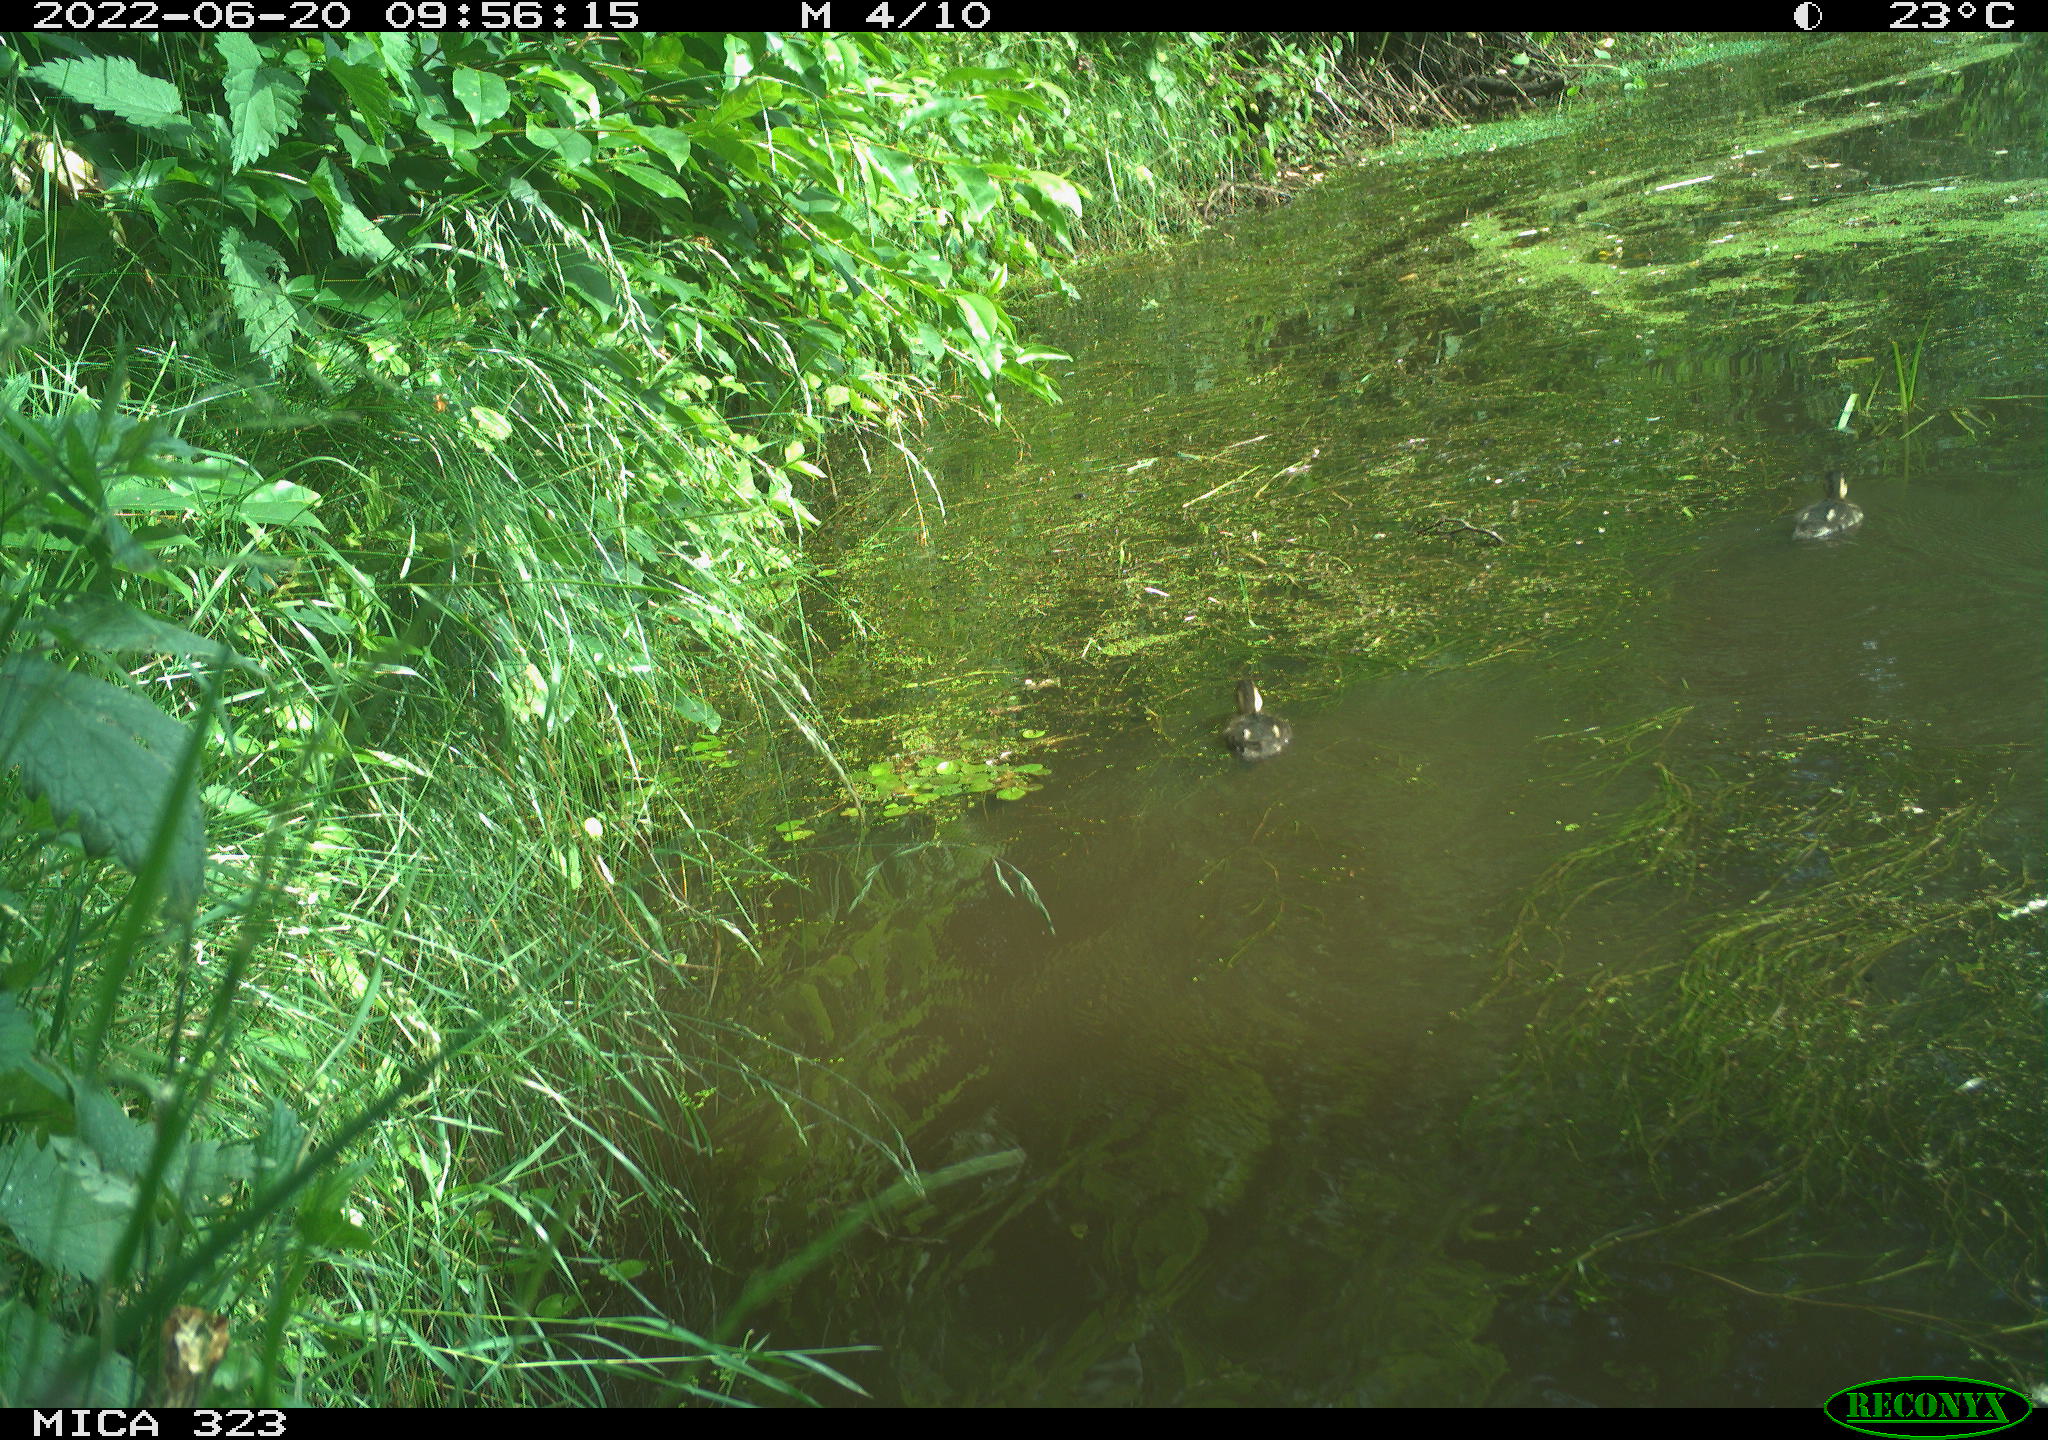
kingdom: Animalia
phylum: Chordata
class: Aves
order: Anseriformes
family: Anatidae
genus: Anas
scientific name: Anas
